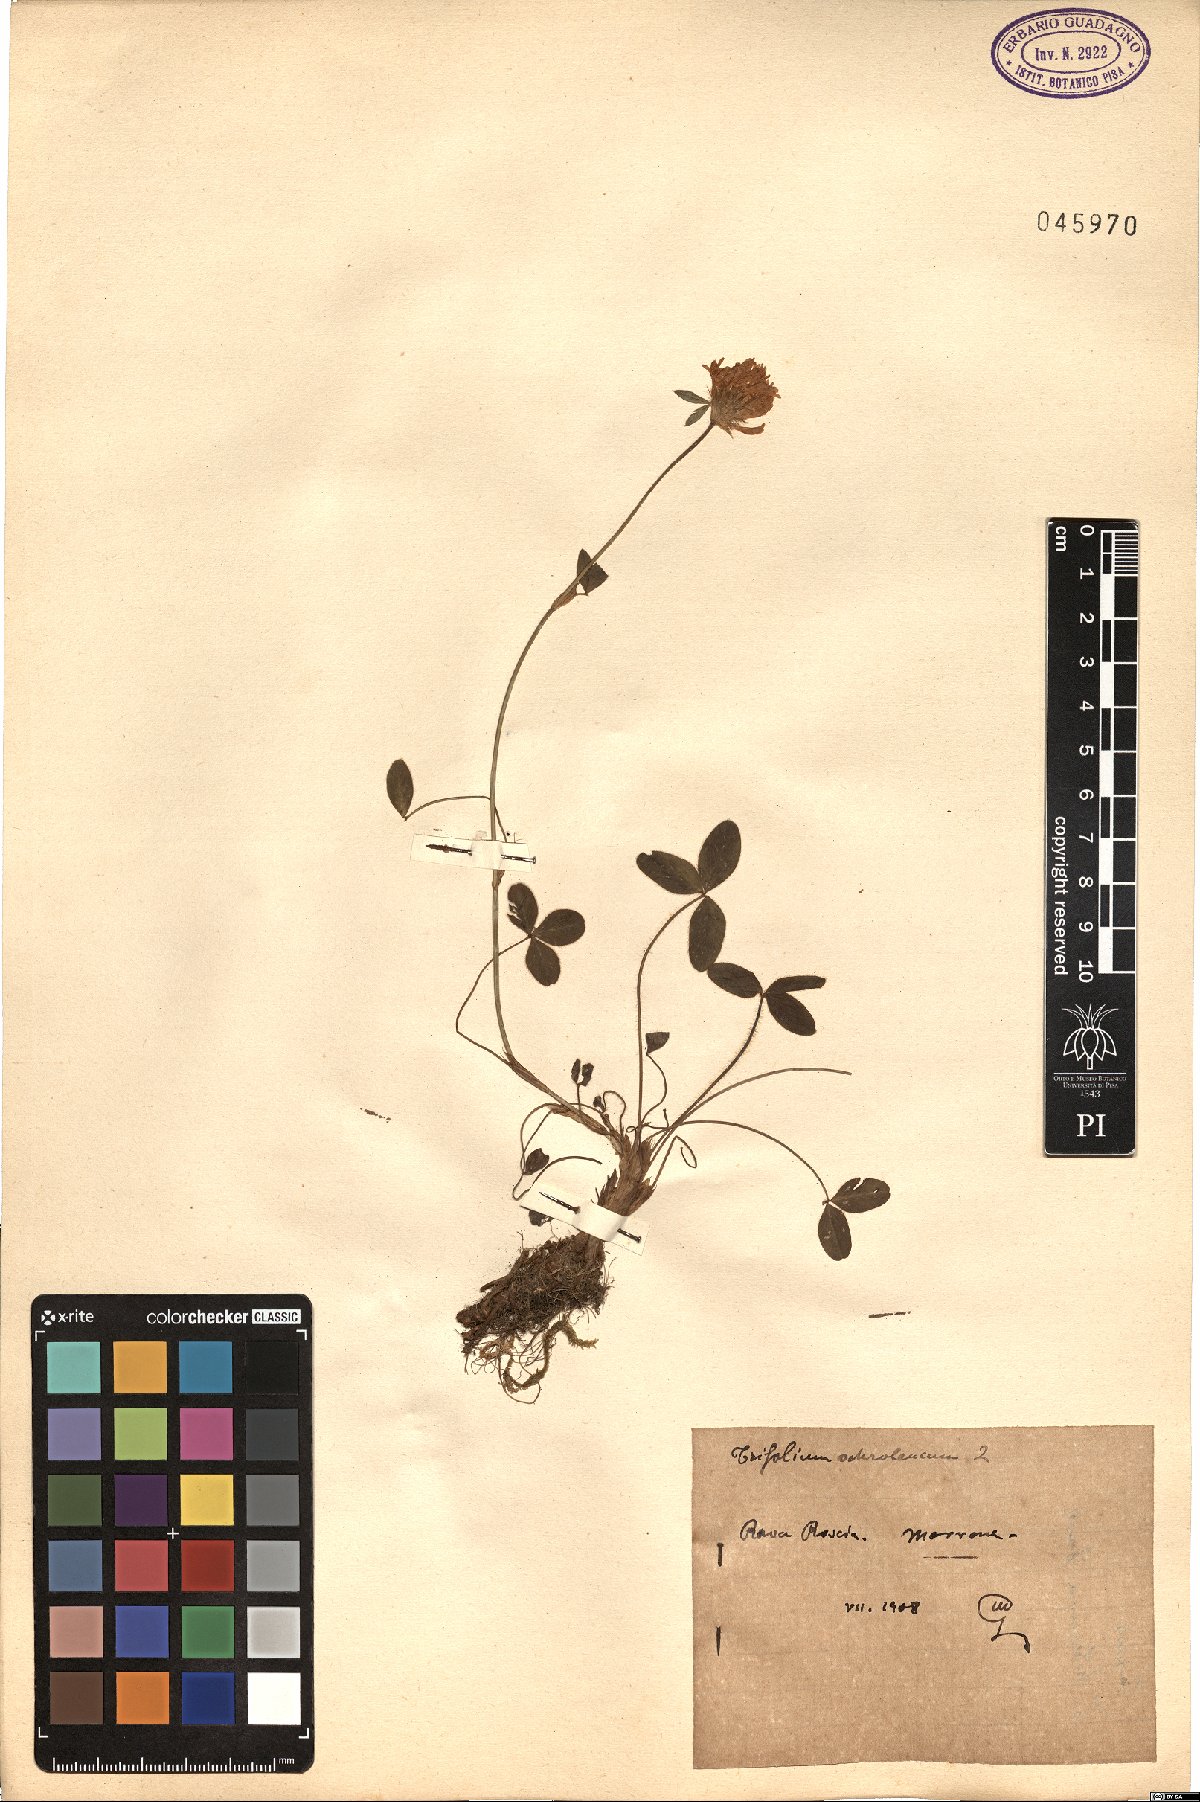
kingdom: Plantae
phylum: Tracheophyta
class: Magnoliopsida
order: Fabales
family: Fabaceae
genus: Trifolium
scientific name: Trifolium ochroleucon
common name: Sulphur clover
